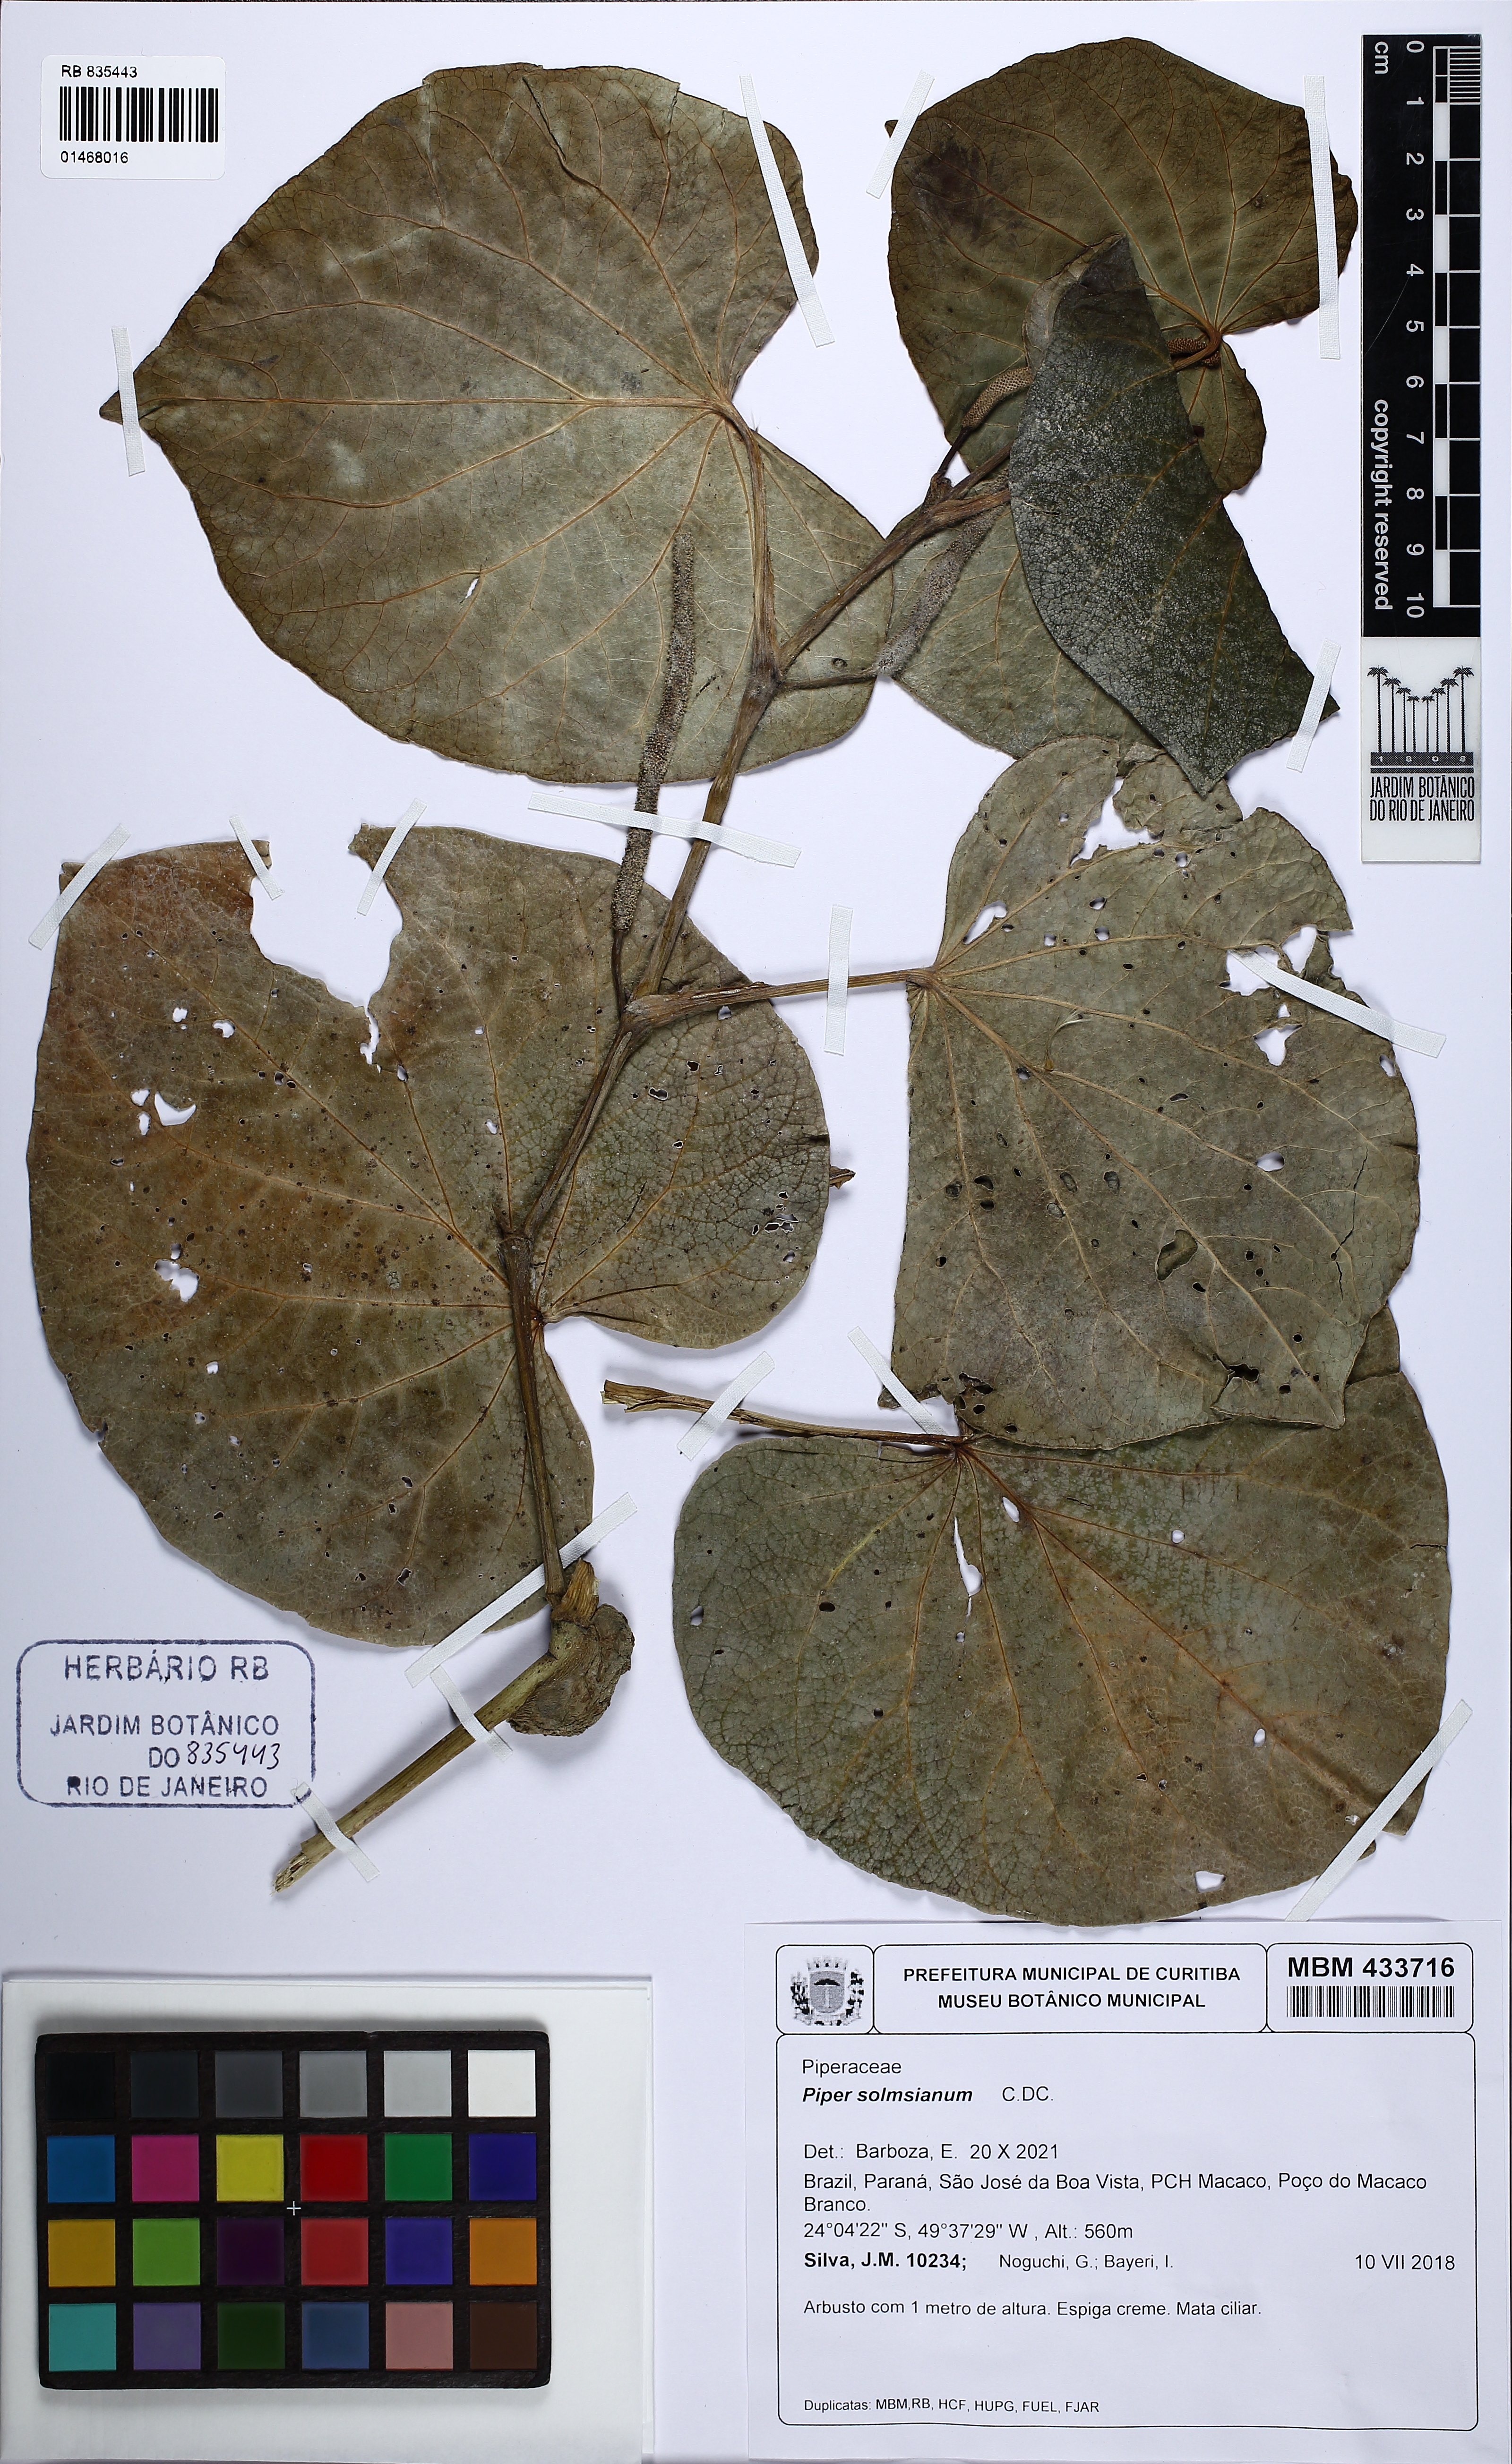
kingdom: Plantae
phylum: Tracheophyta
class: Magnoliopsida
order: Piperales
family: Piperaceae
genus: Piper
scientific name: Piper solmsianum
